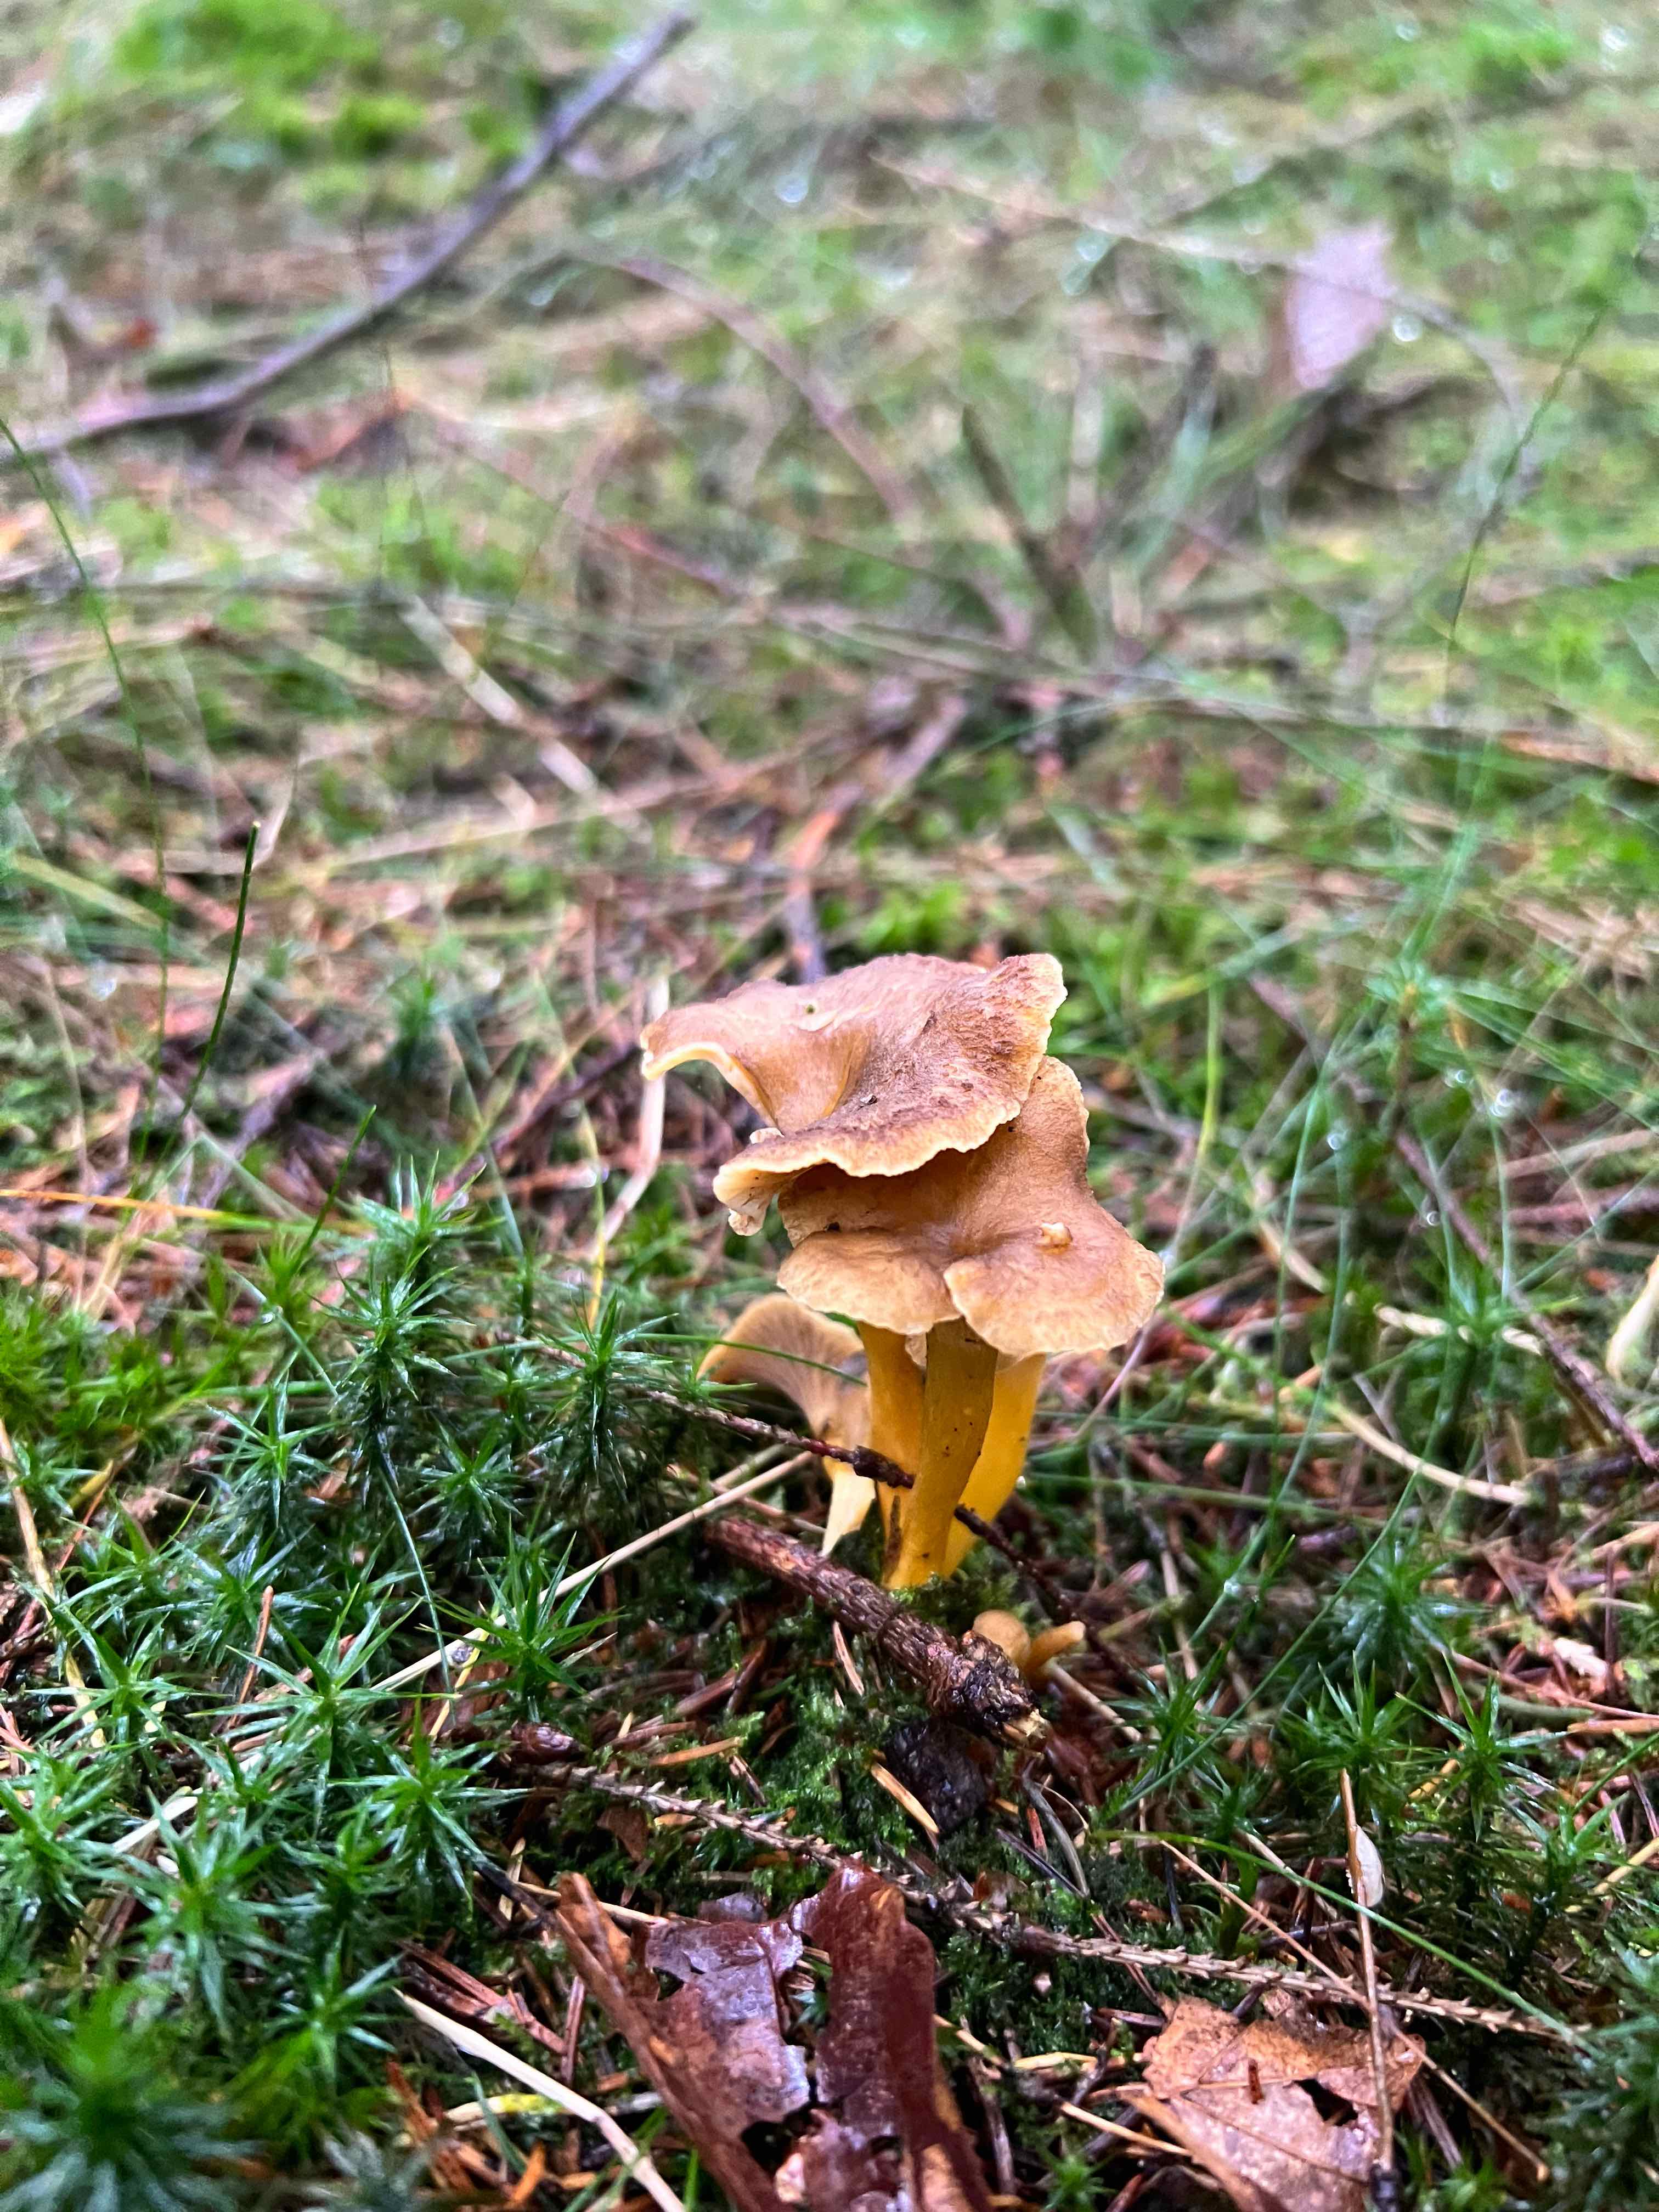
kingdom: Fungi
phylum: Basidiomycota
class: Agaricomycetes
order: Cantharellales
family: Hydnaceae
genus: Craterellus
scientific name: Craterellus tubaeformis
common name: tragt-kantarel
